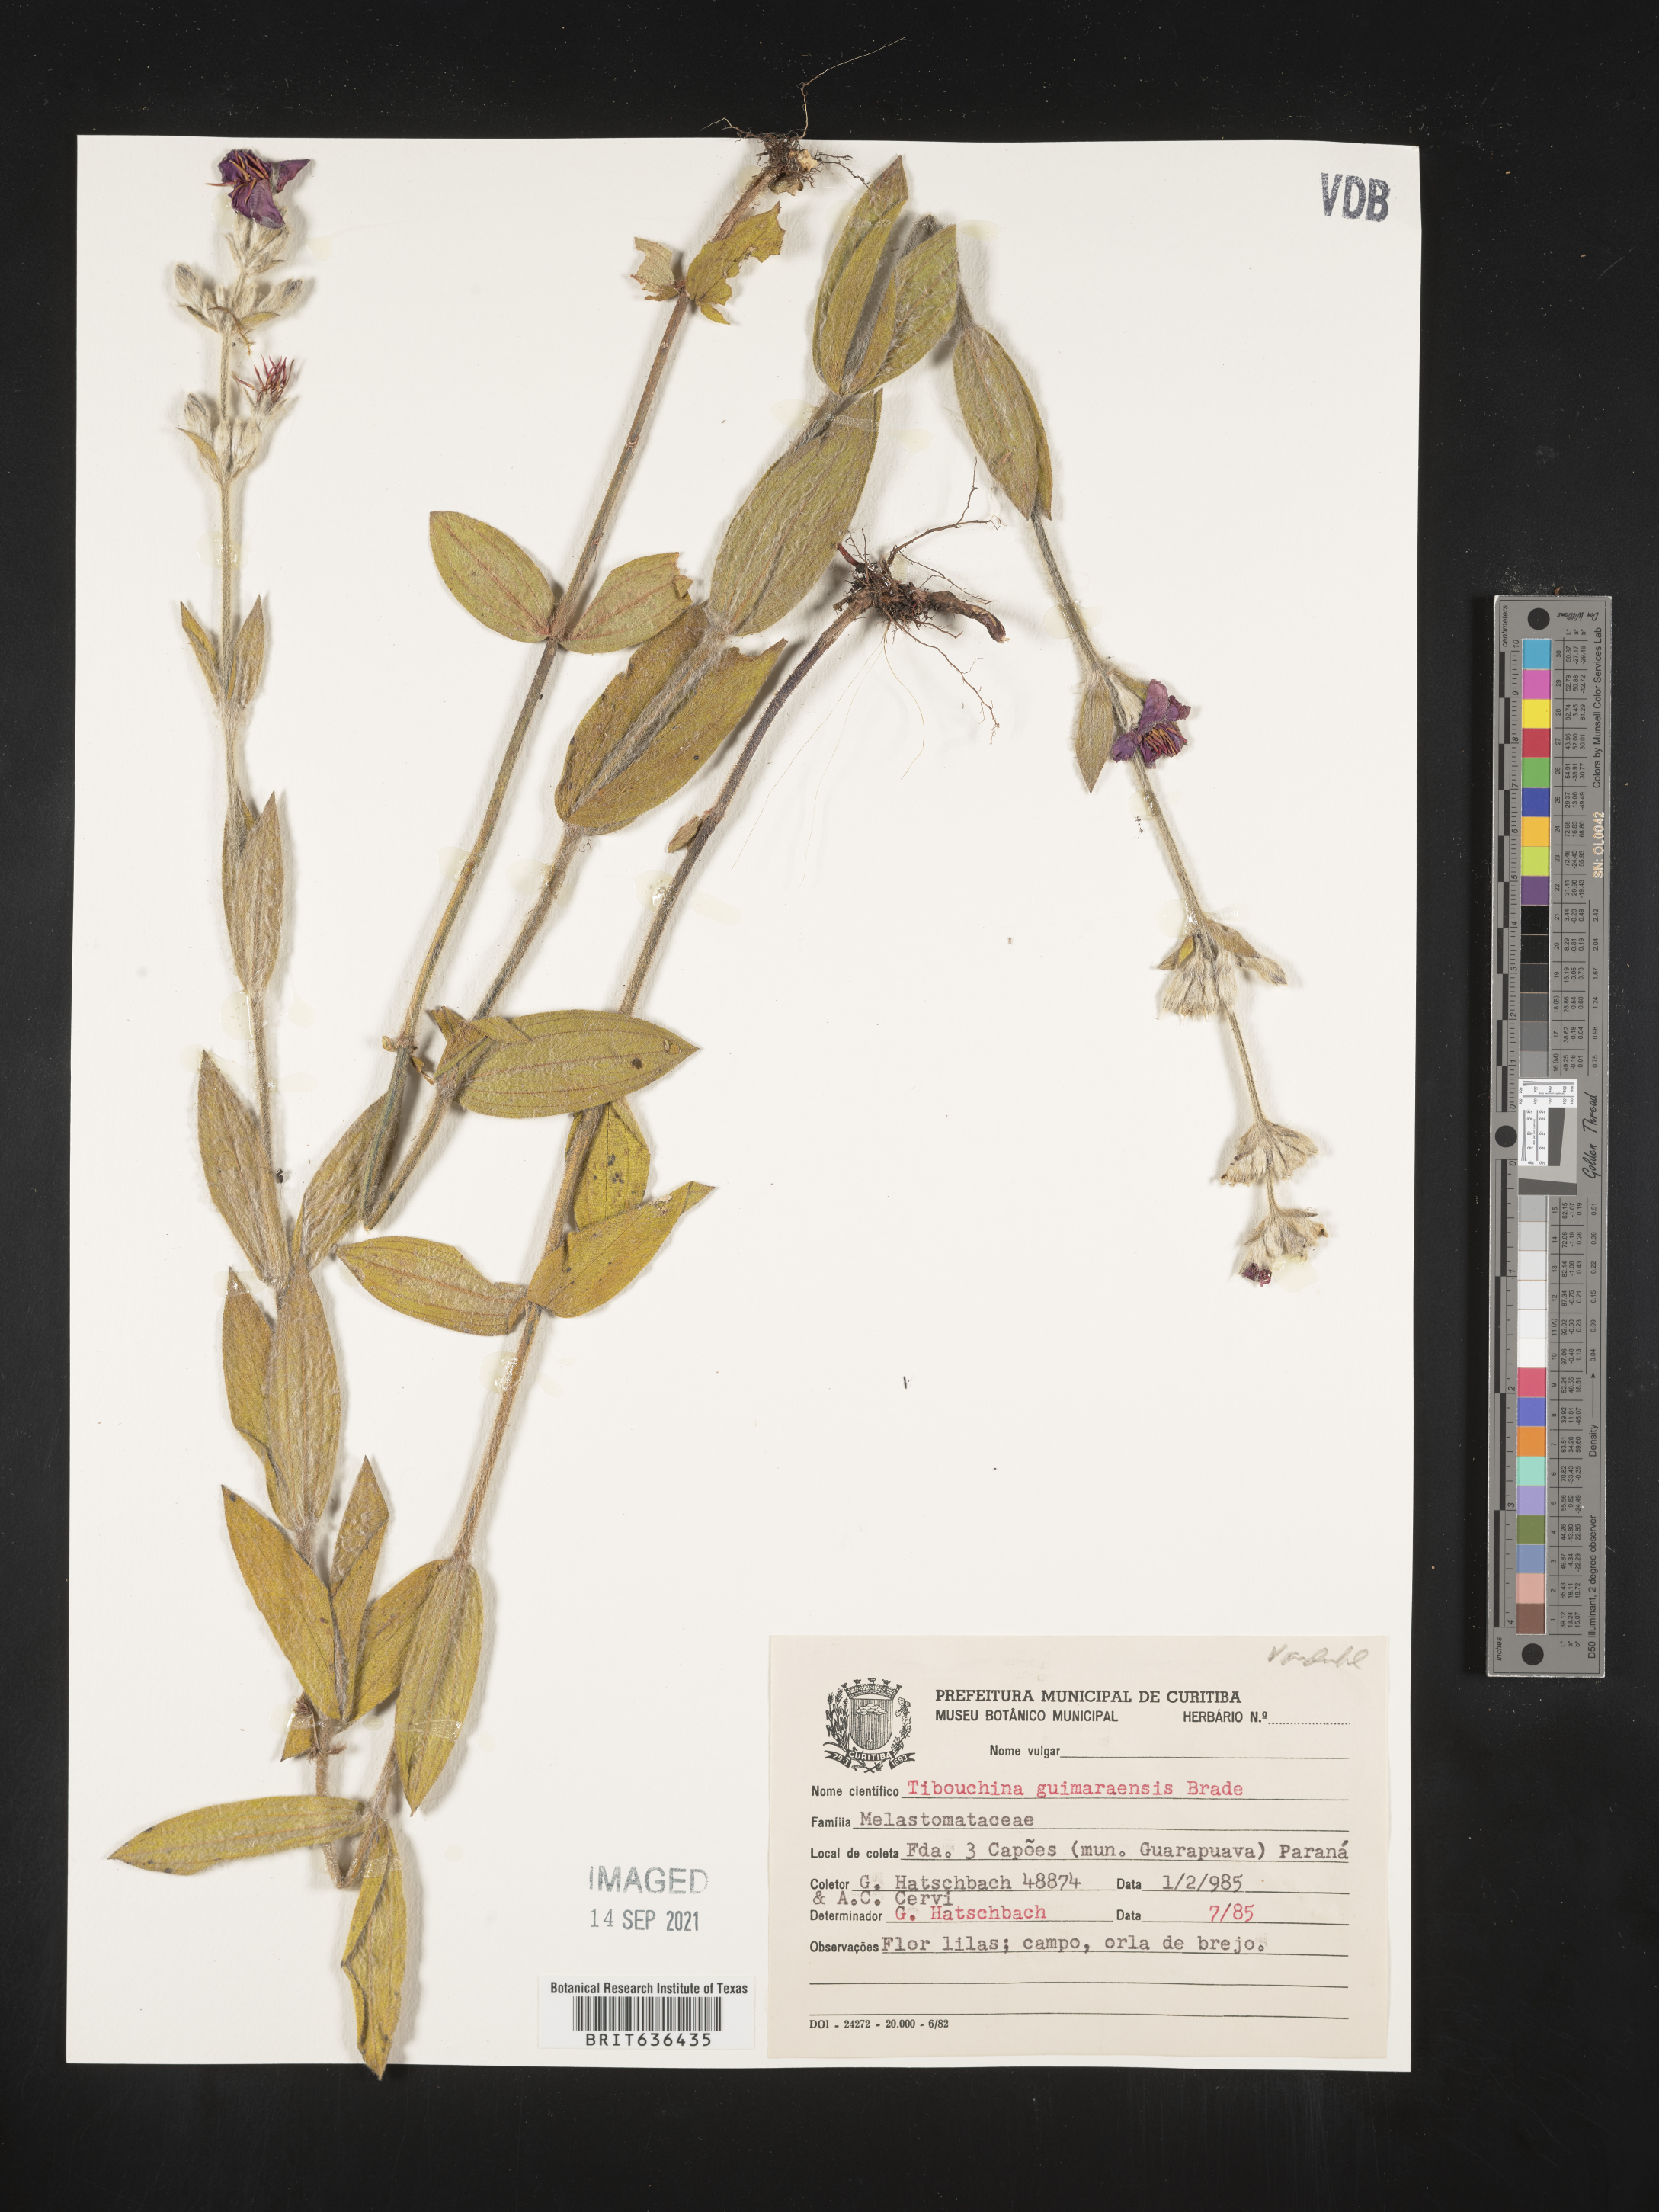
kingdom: Plantae
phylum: Tracheophyta
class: Magnoliopsida
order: Myrtales
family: Melastomataceae
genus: Tibouchina
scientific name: Tibouchina
